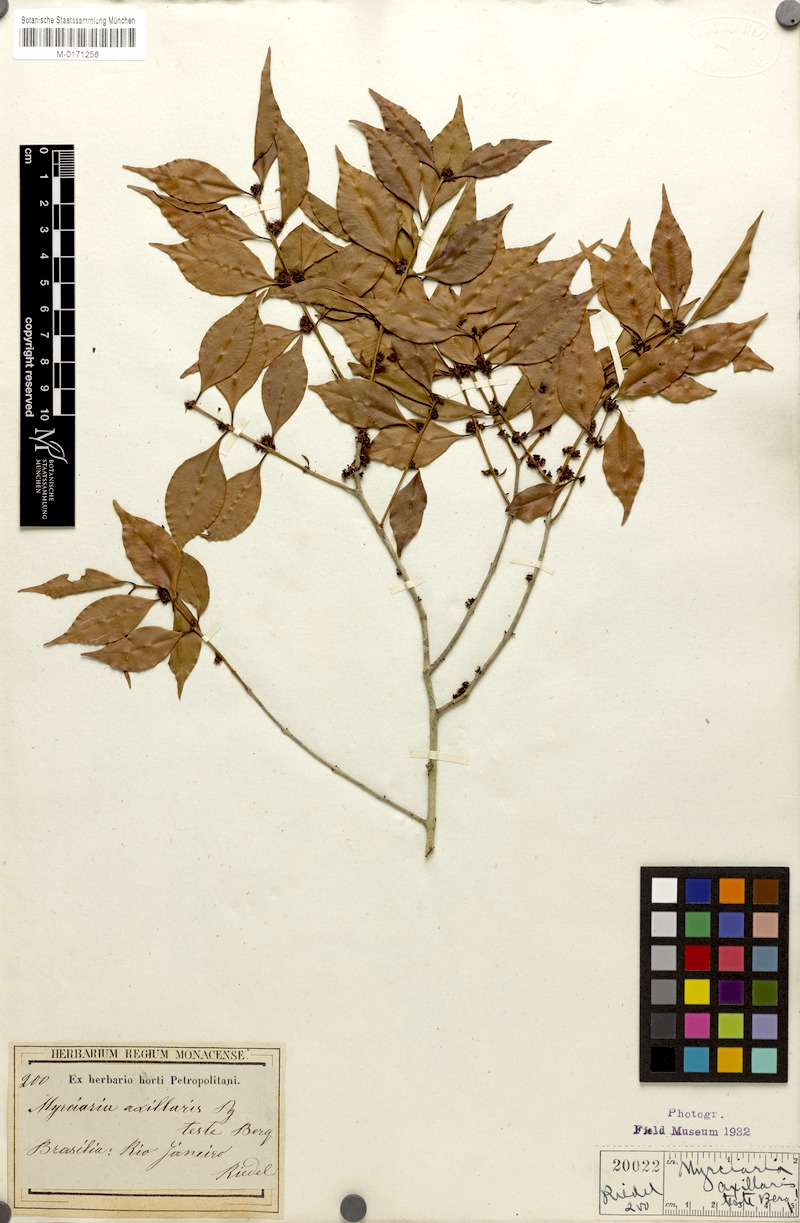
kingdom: Plantae
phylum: Tracheophyta
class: Magnoliopsida
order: Myrtales
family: Myrtaceae
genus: Myrciaria
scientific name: Myrciaria floribunda
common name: Guavaberry
